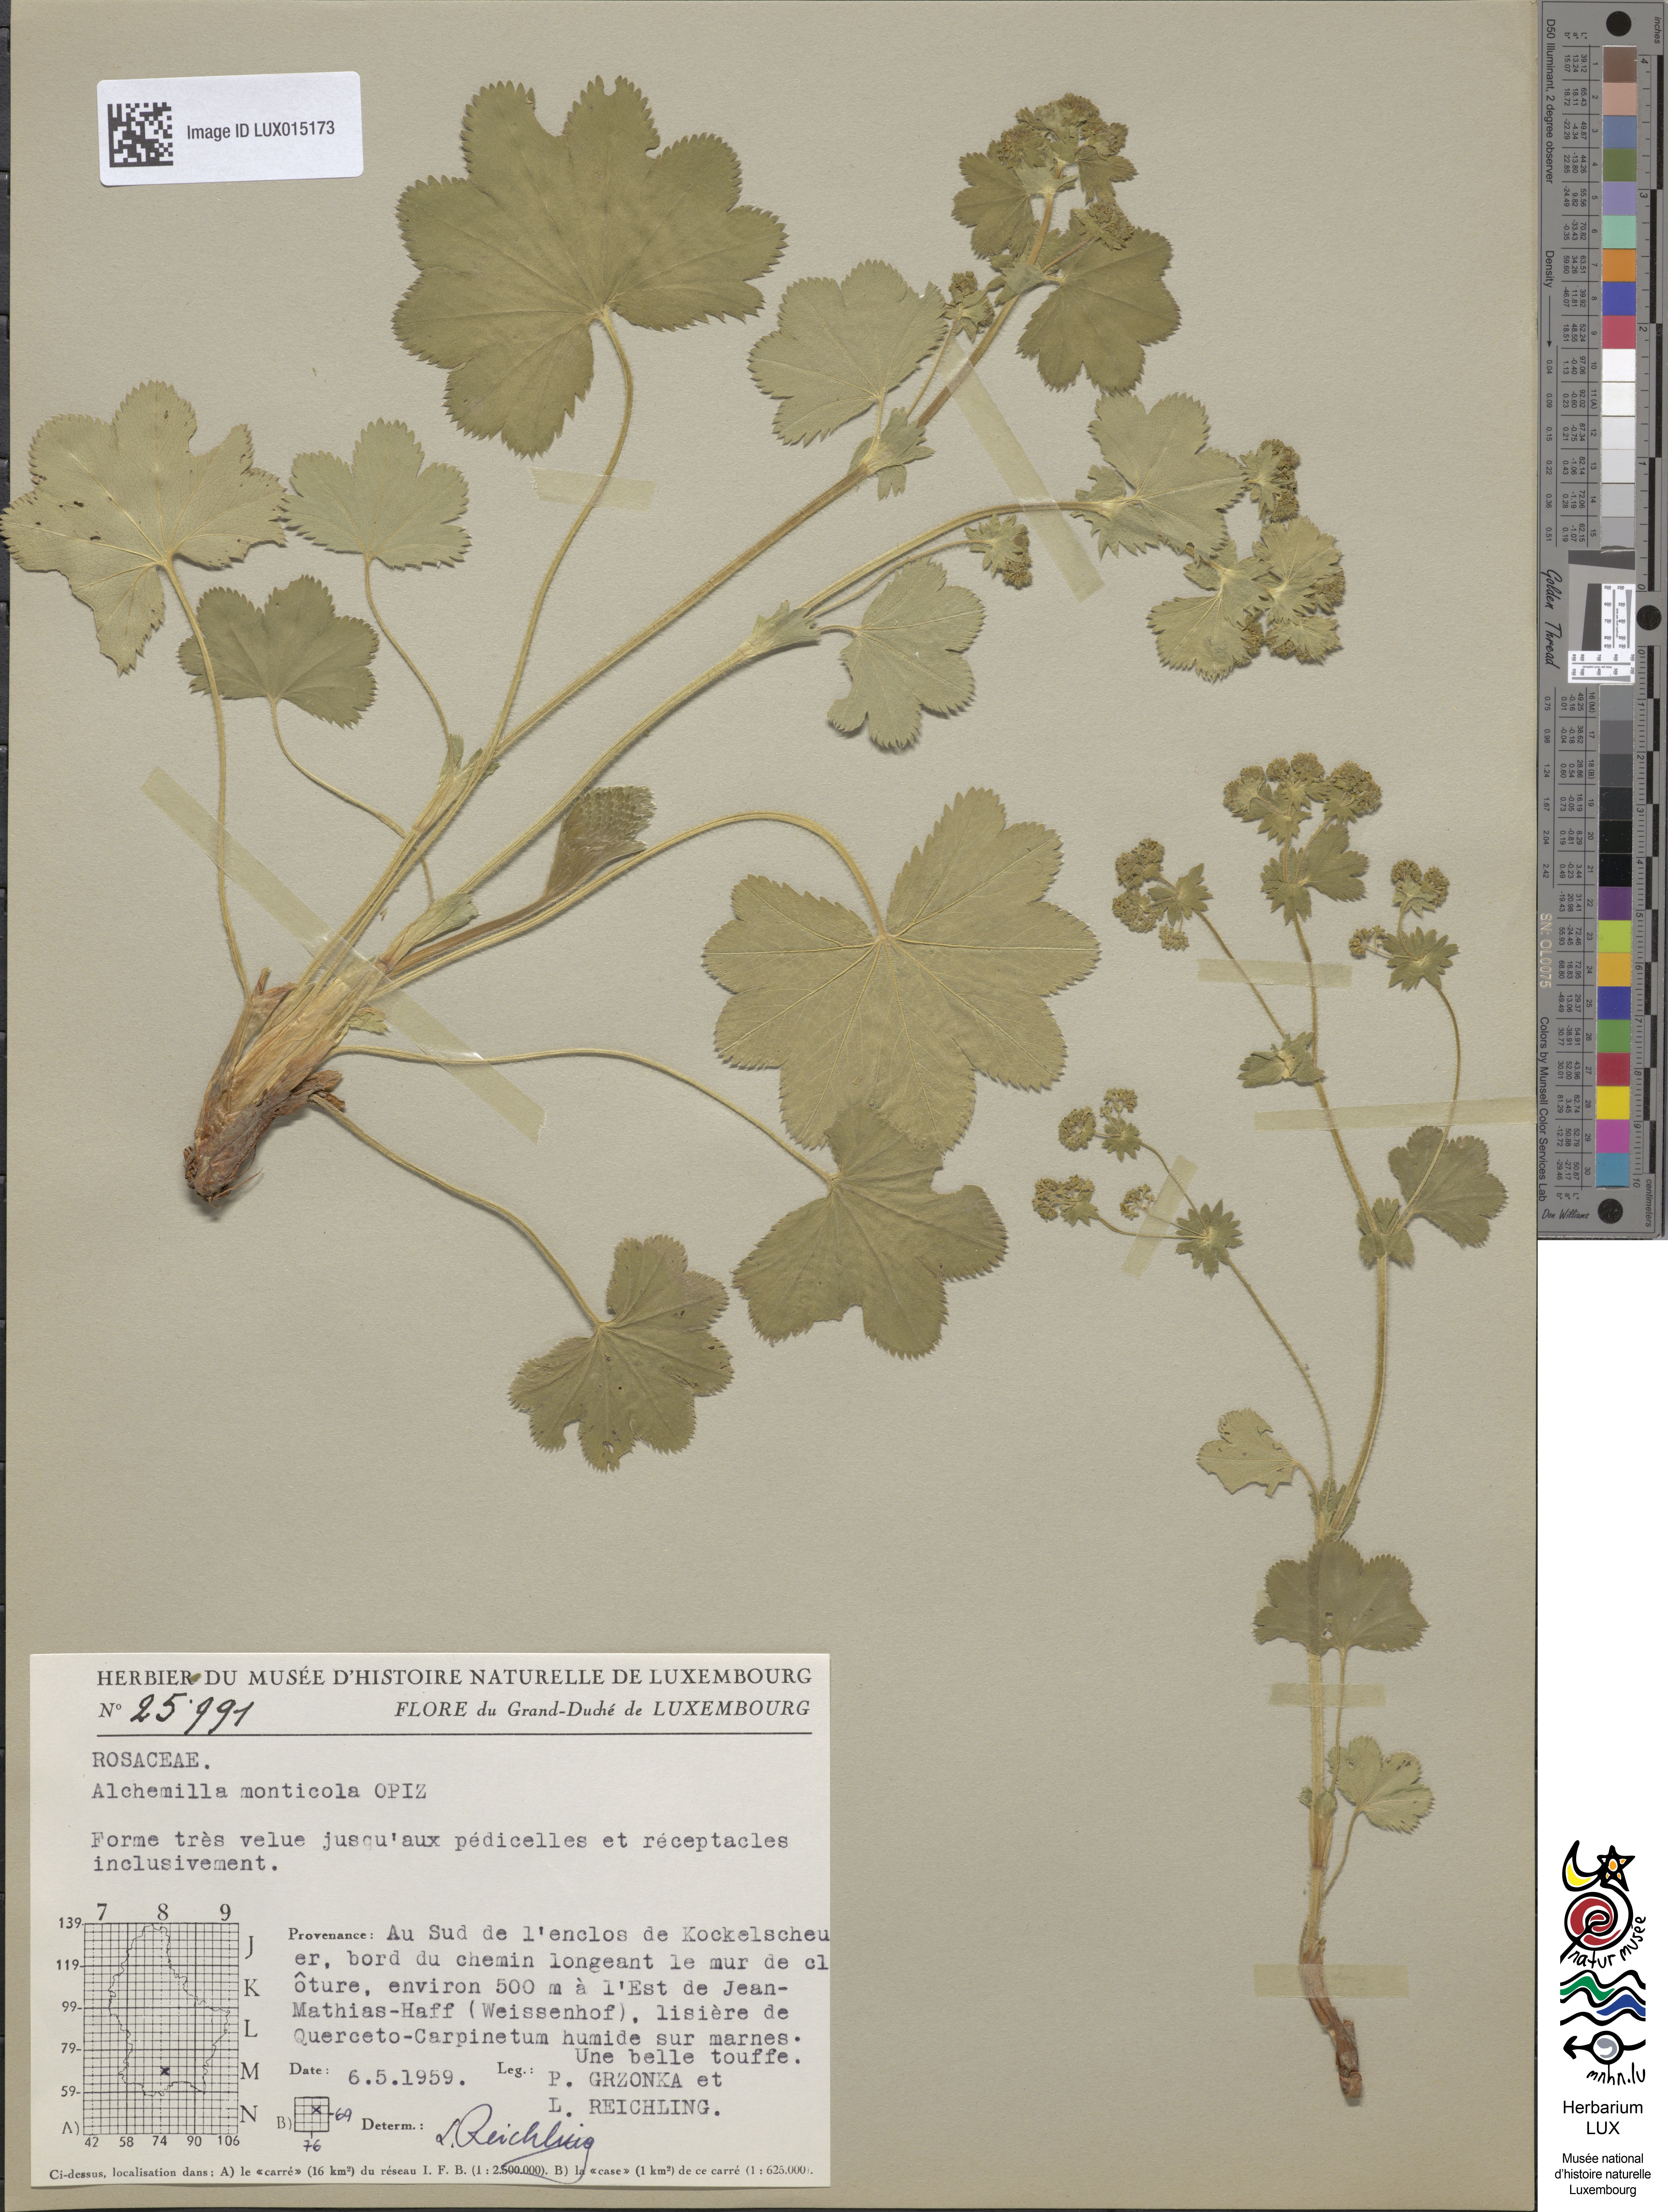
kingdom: Plantae
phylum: Tracheophyta
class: Magnoliopsida
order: Rosales
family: Rosaceae
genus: Alchemilla
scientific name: Alchemilla monticola
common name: Hairy lady's mantle
